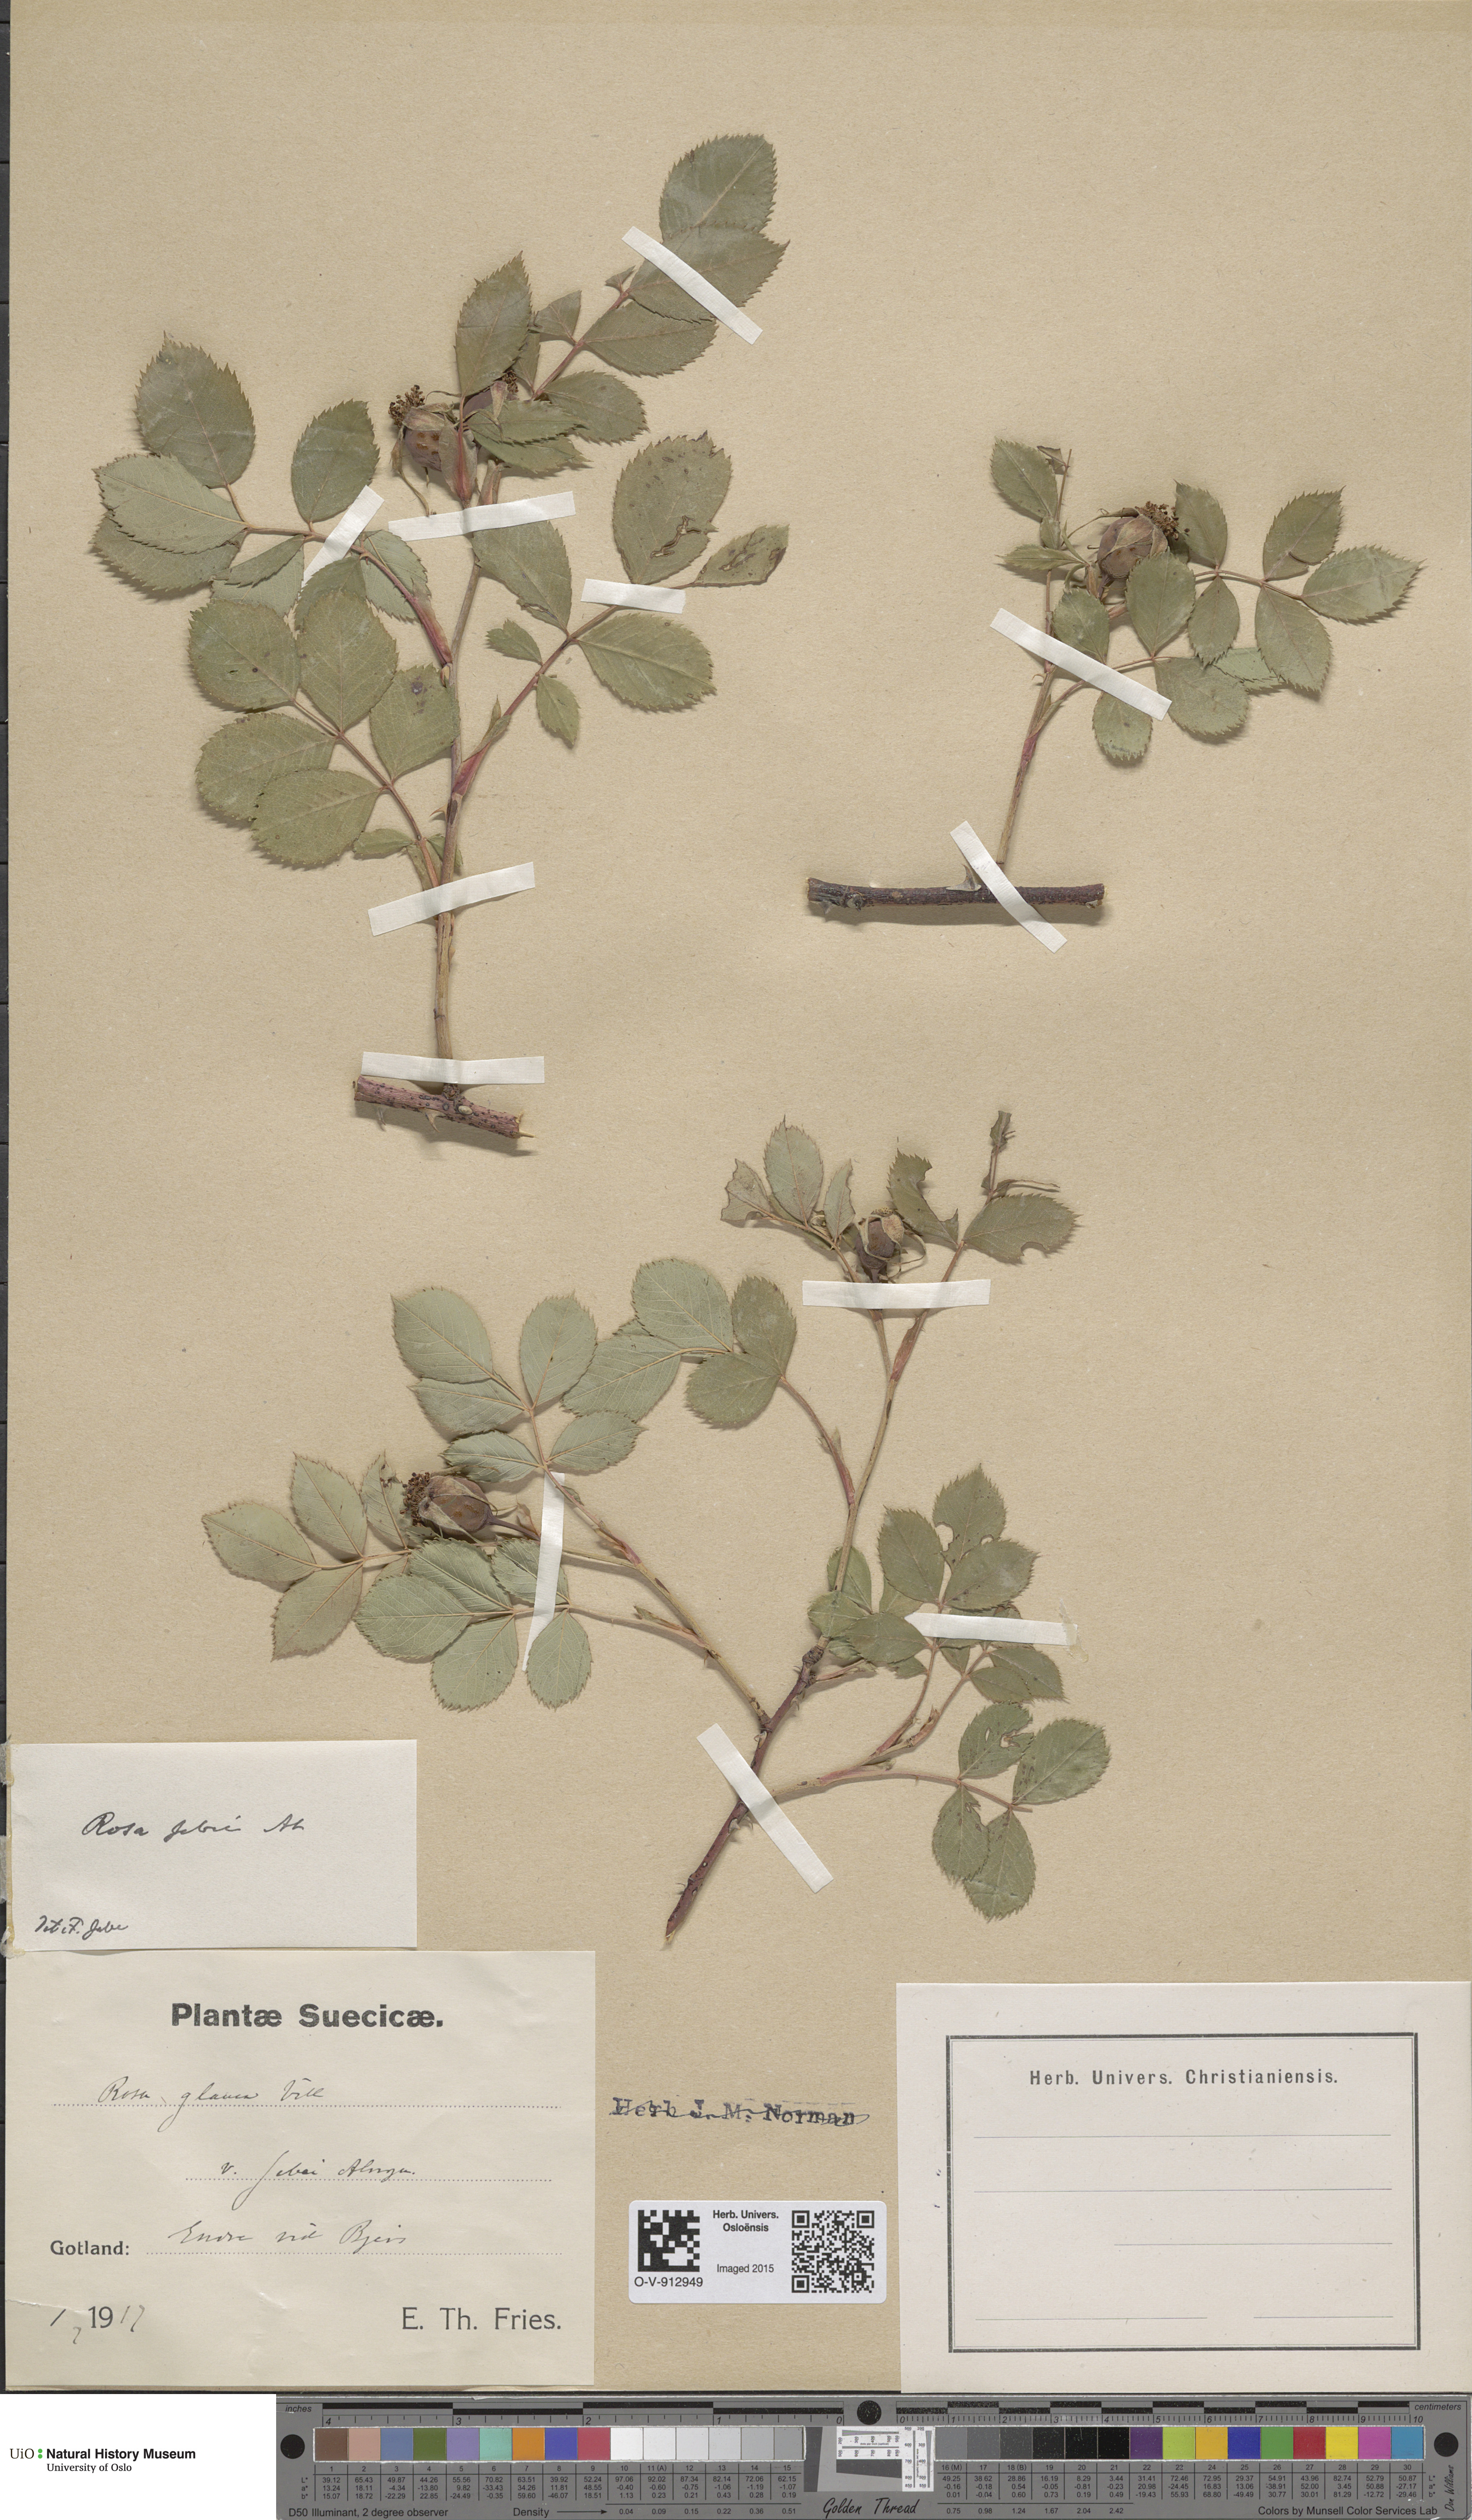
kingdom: Plantae
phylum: Tracheophyta
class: Magnoliopsida
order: Rosales
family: Rosaceae
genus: Rosa
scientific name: Rosa glauca
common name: Redleaf rose
